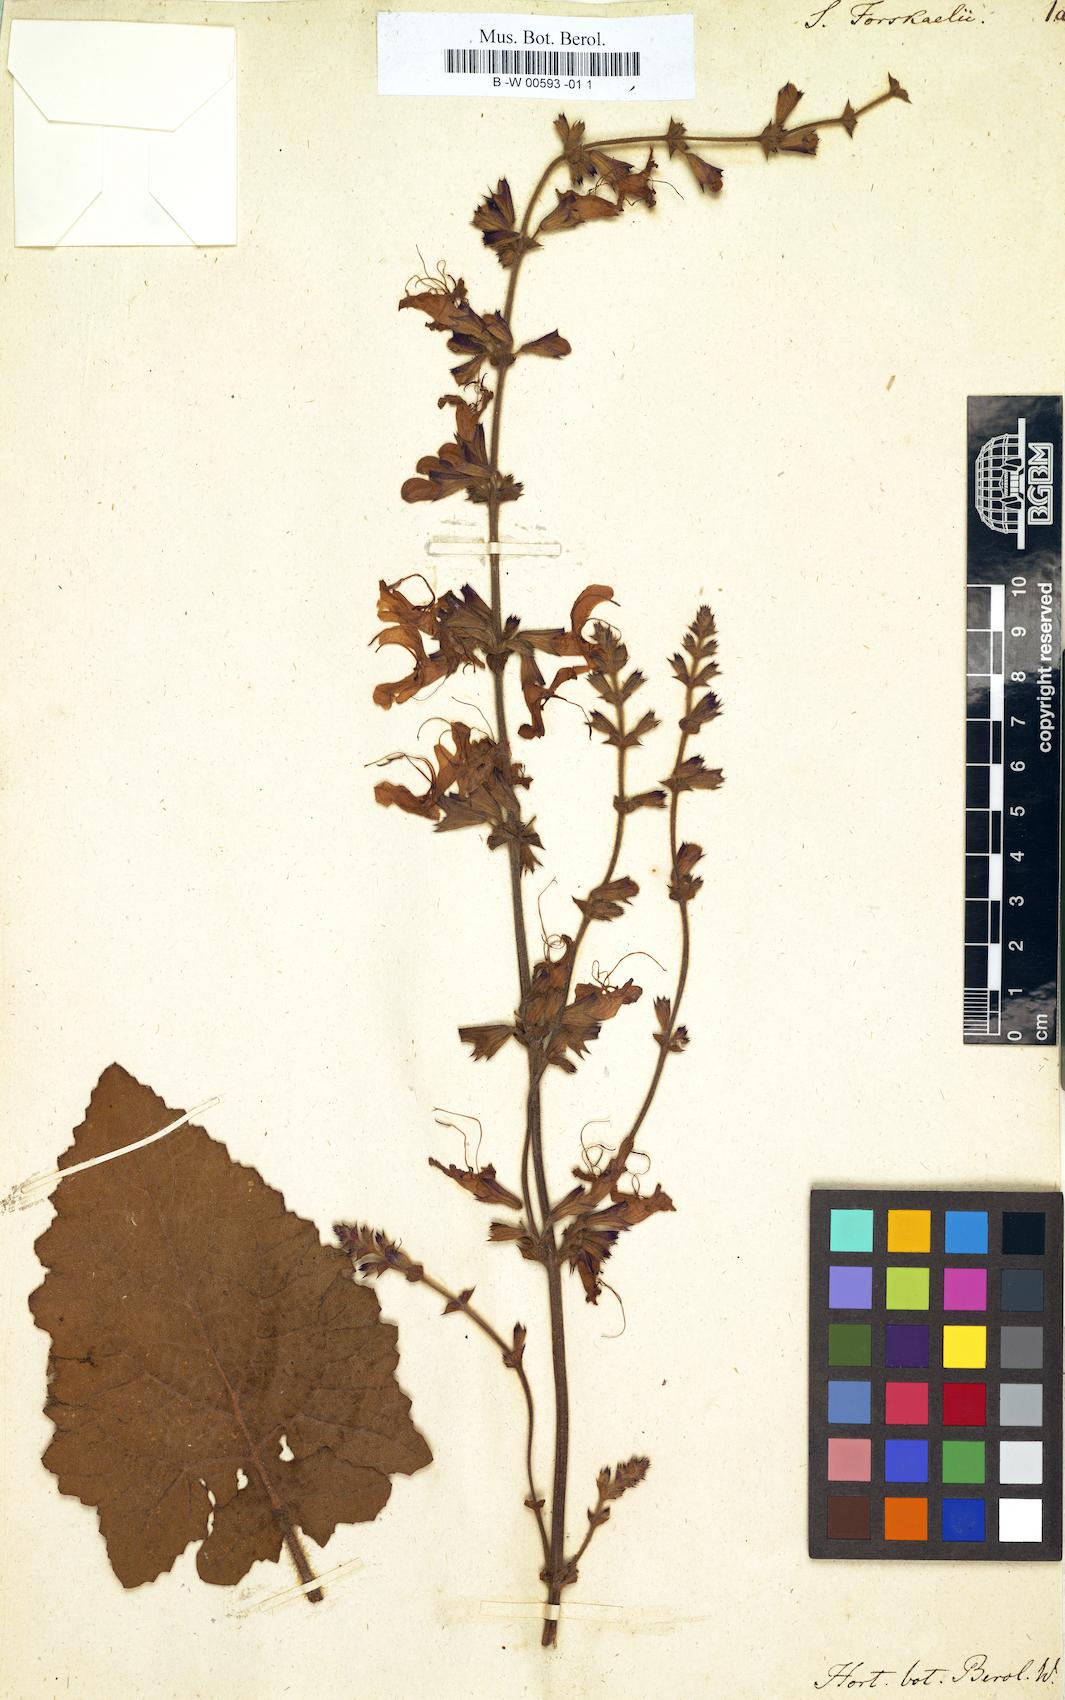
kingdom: Plantae
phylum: Tracheophyta
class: Magnoliopsida
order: Lamiales
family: Lamiaceae
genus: Salvia
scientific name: Salvia
